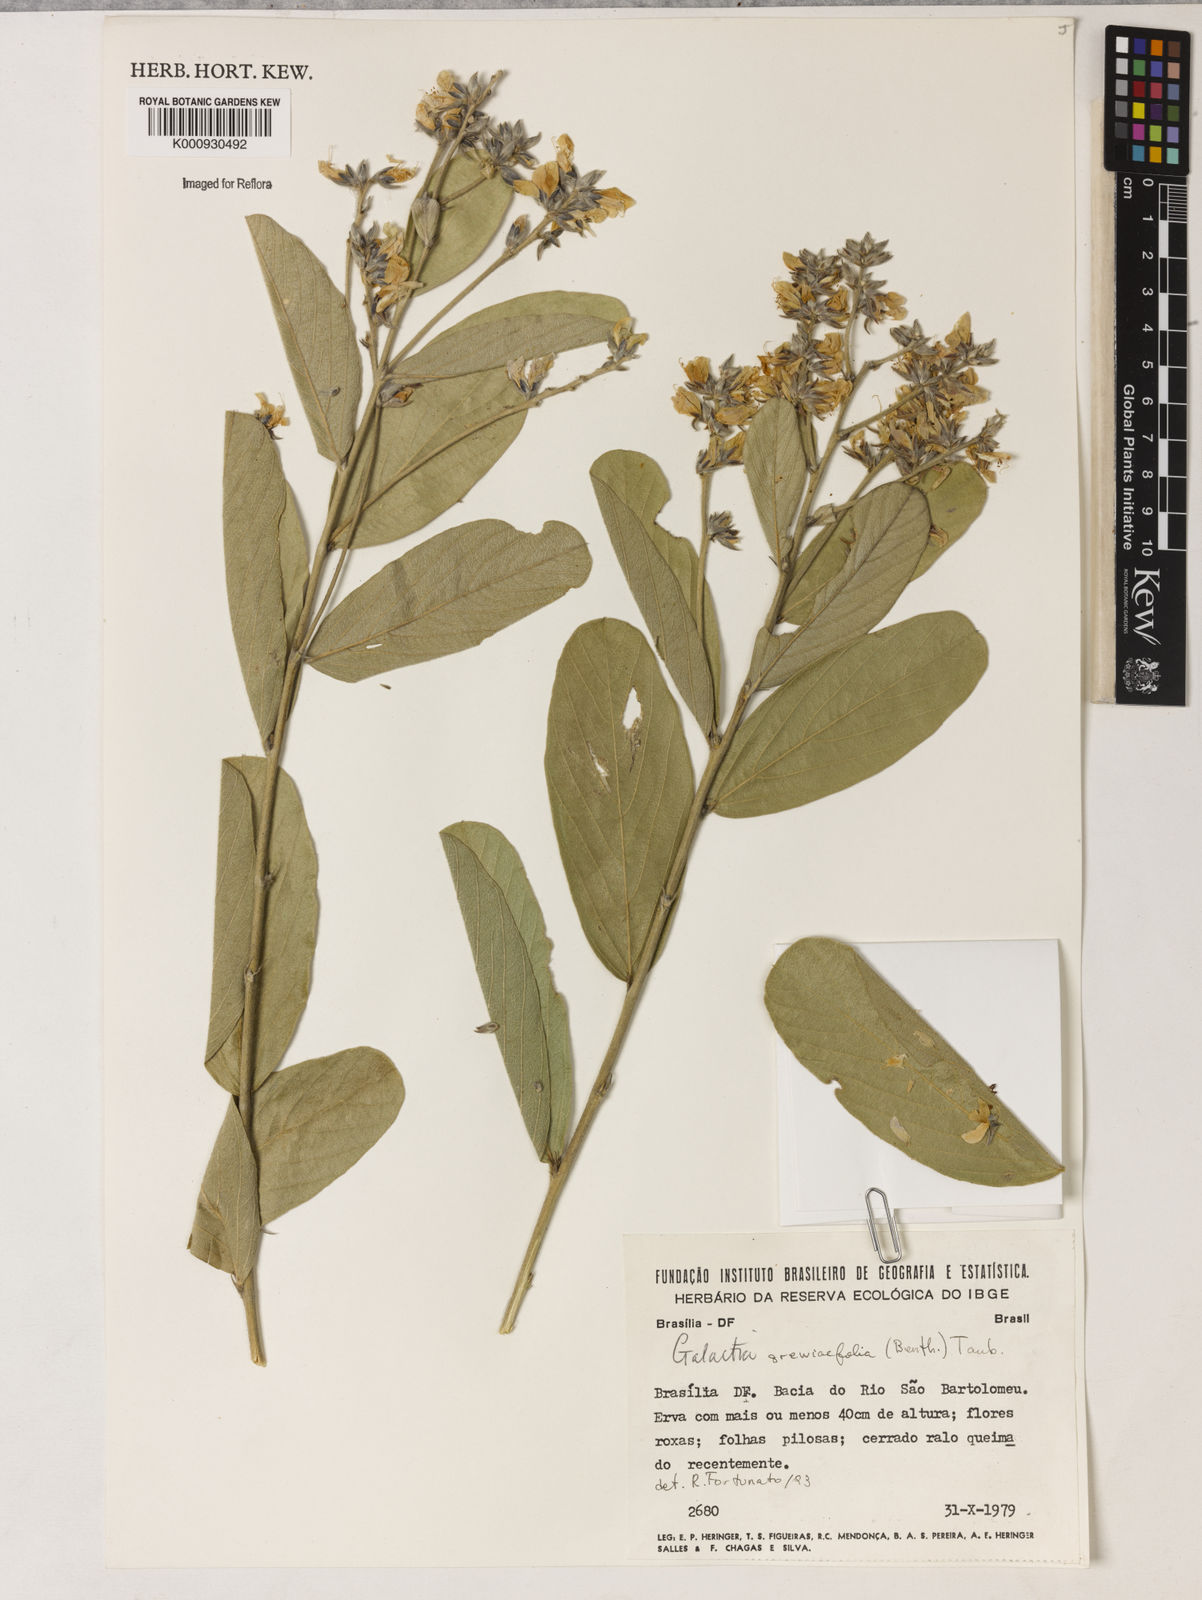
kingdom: Plantae
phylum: Tracheophyta
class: Magnoliopsida
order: Fabales
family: Fabaceae
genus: Galactia
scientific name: Galactia
